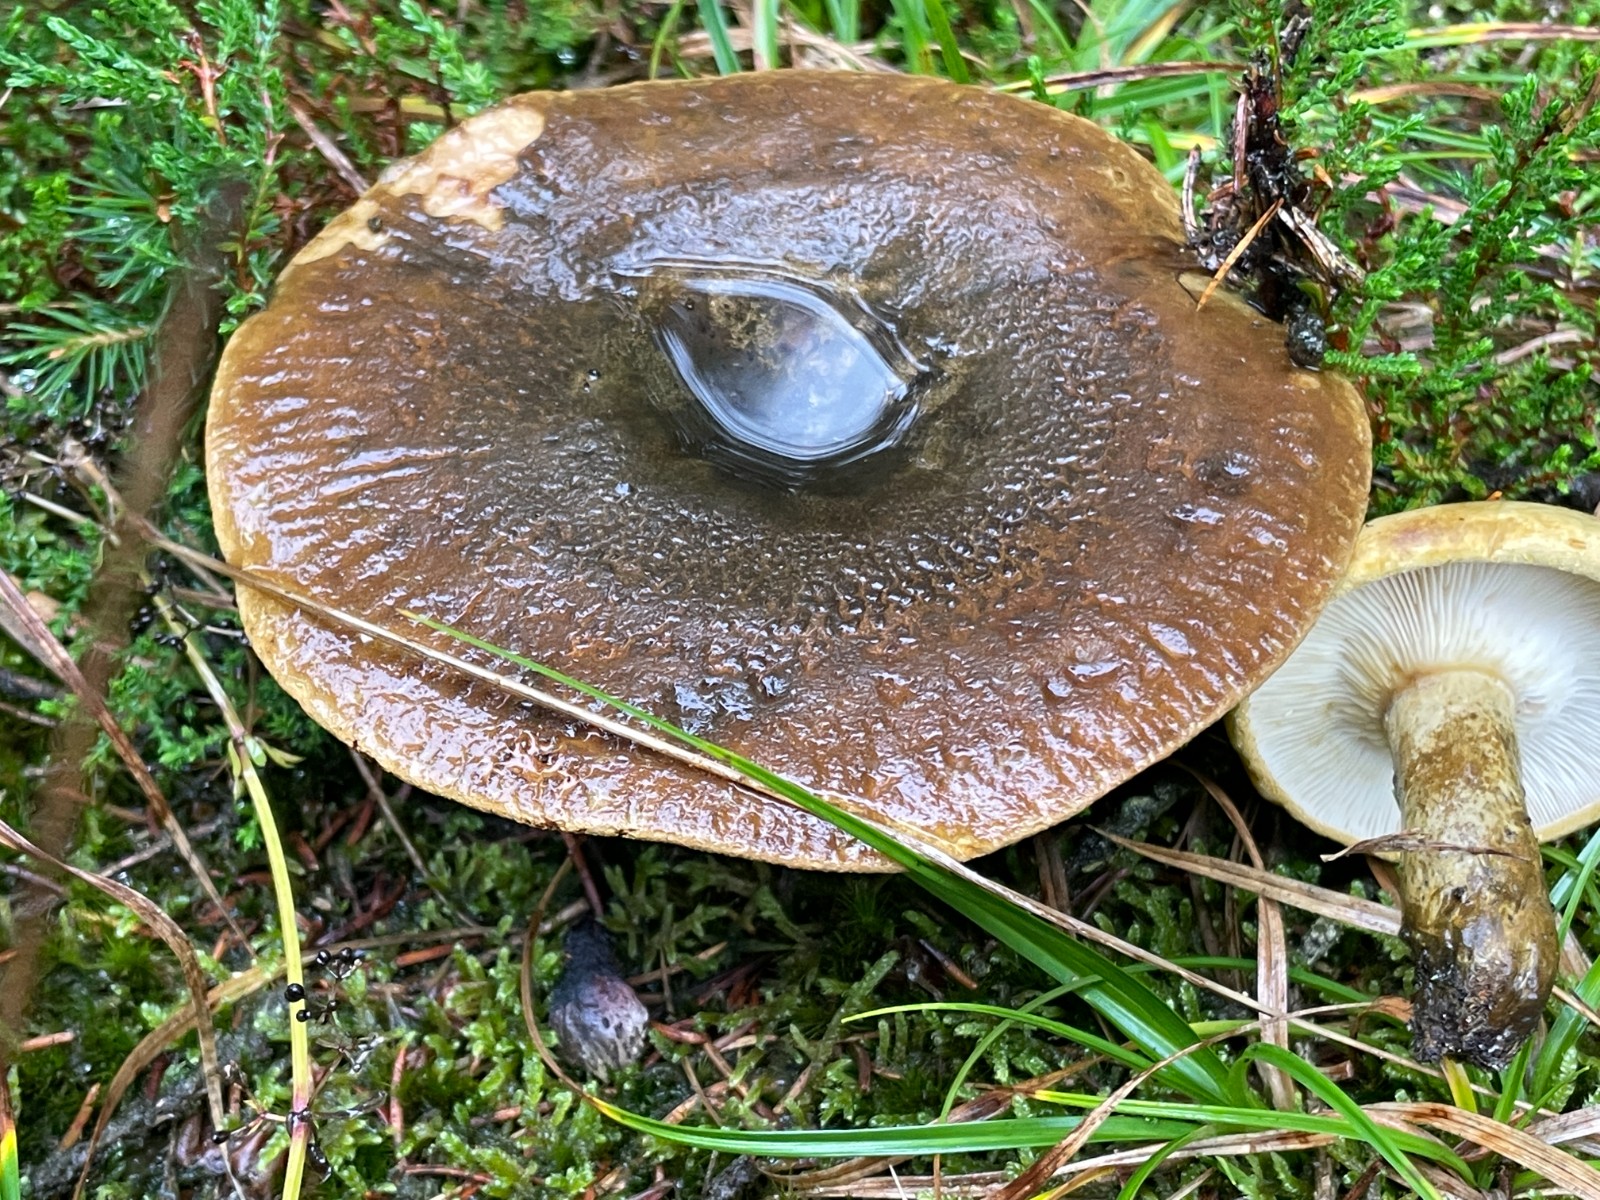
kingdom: Fungi
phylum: Basidiomycota
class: Agaricomycetes
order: Russulales
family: Russulaceae
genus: Lactarius
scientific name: Lactarius necator
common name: manddraber-mælkehat
